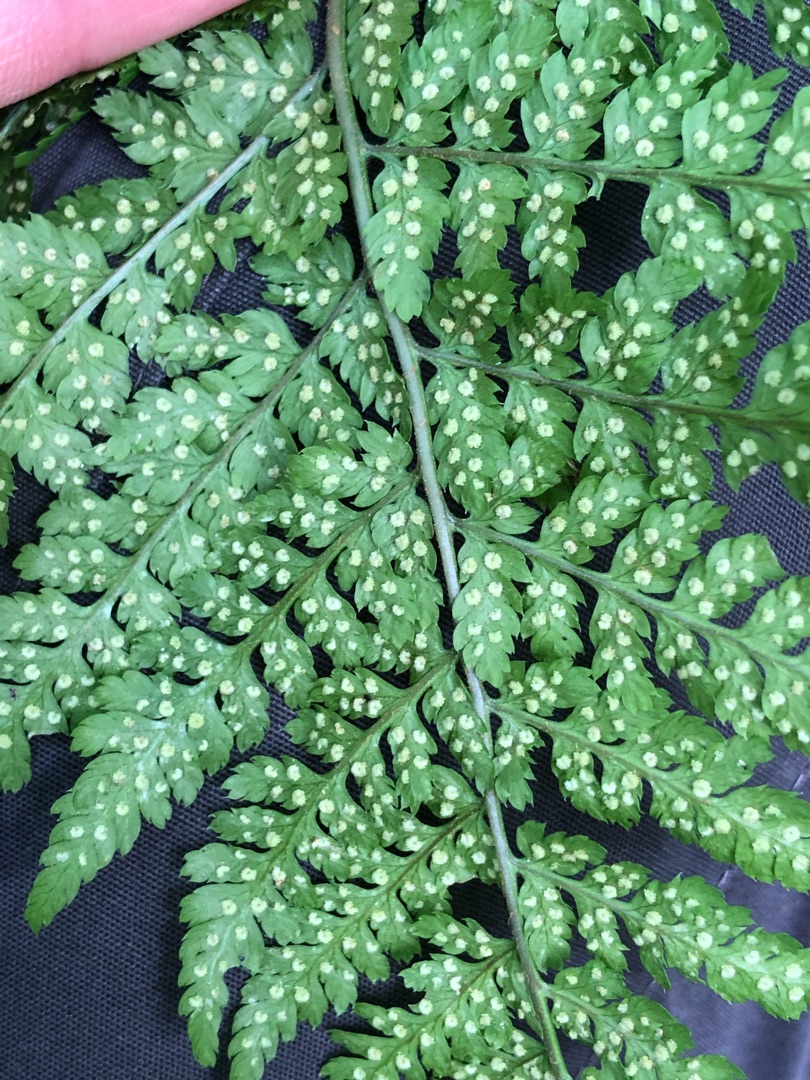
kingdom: Plantae
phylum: Tracheophyta
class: Polypodiopsida
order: Polypodiales
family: Dryopteridaceae
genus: Dryopteris
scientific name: Dryopteris dilatata
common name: Bredbladet mangeløv
